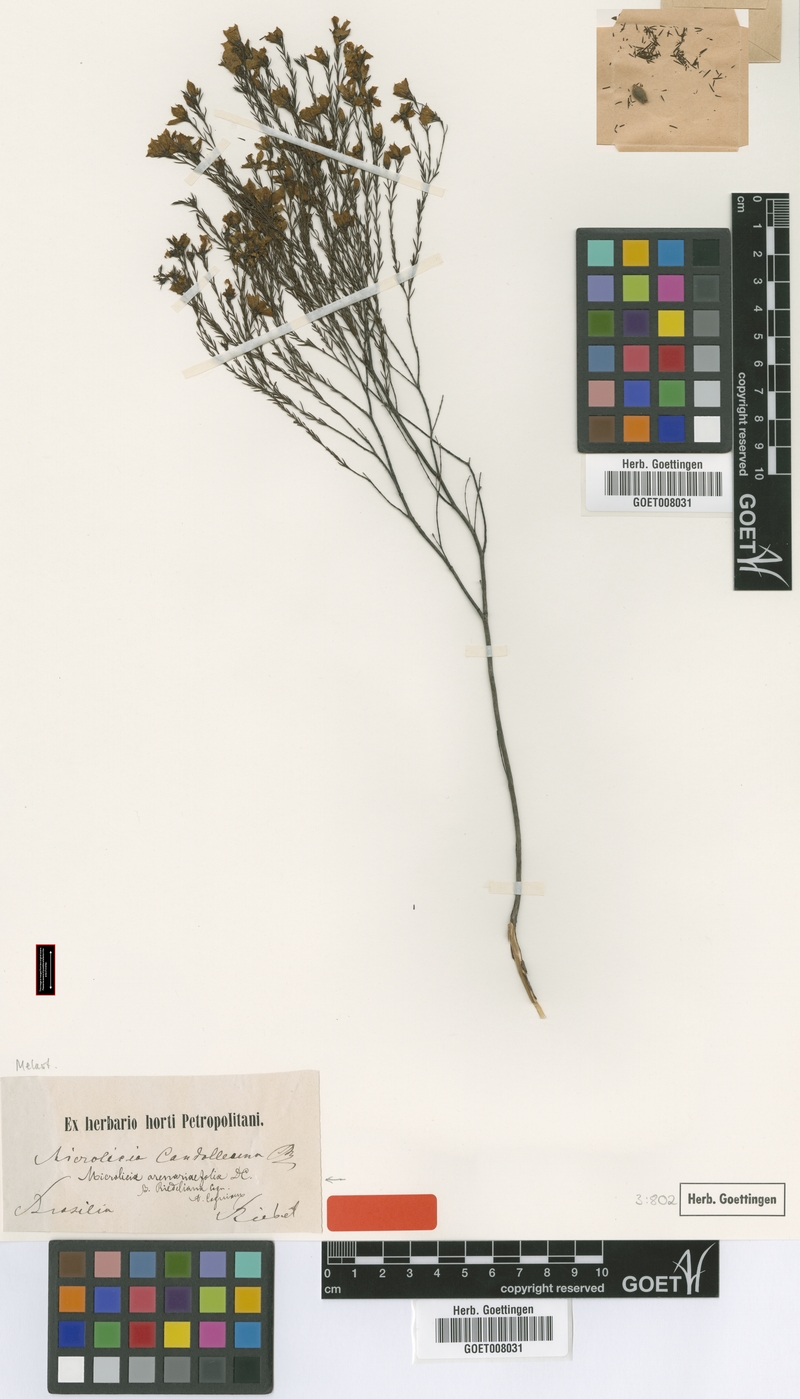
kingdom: Plantae
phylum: Tracheophyta
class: Magnoliopsida
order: Myrtales
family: Melastomataceae
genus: Microlicia
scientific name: Microlicia arenariaefolia
